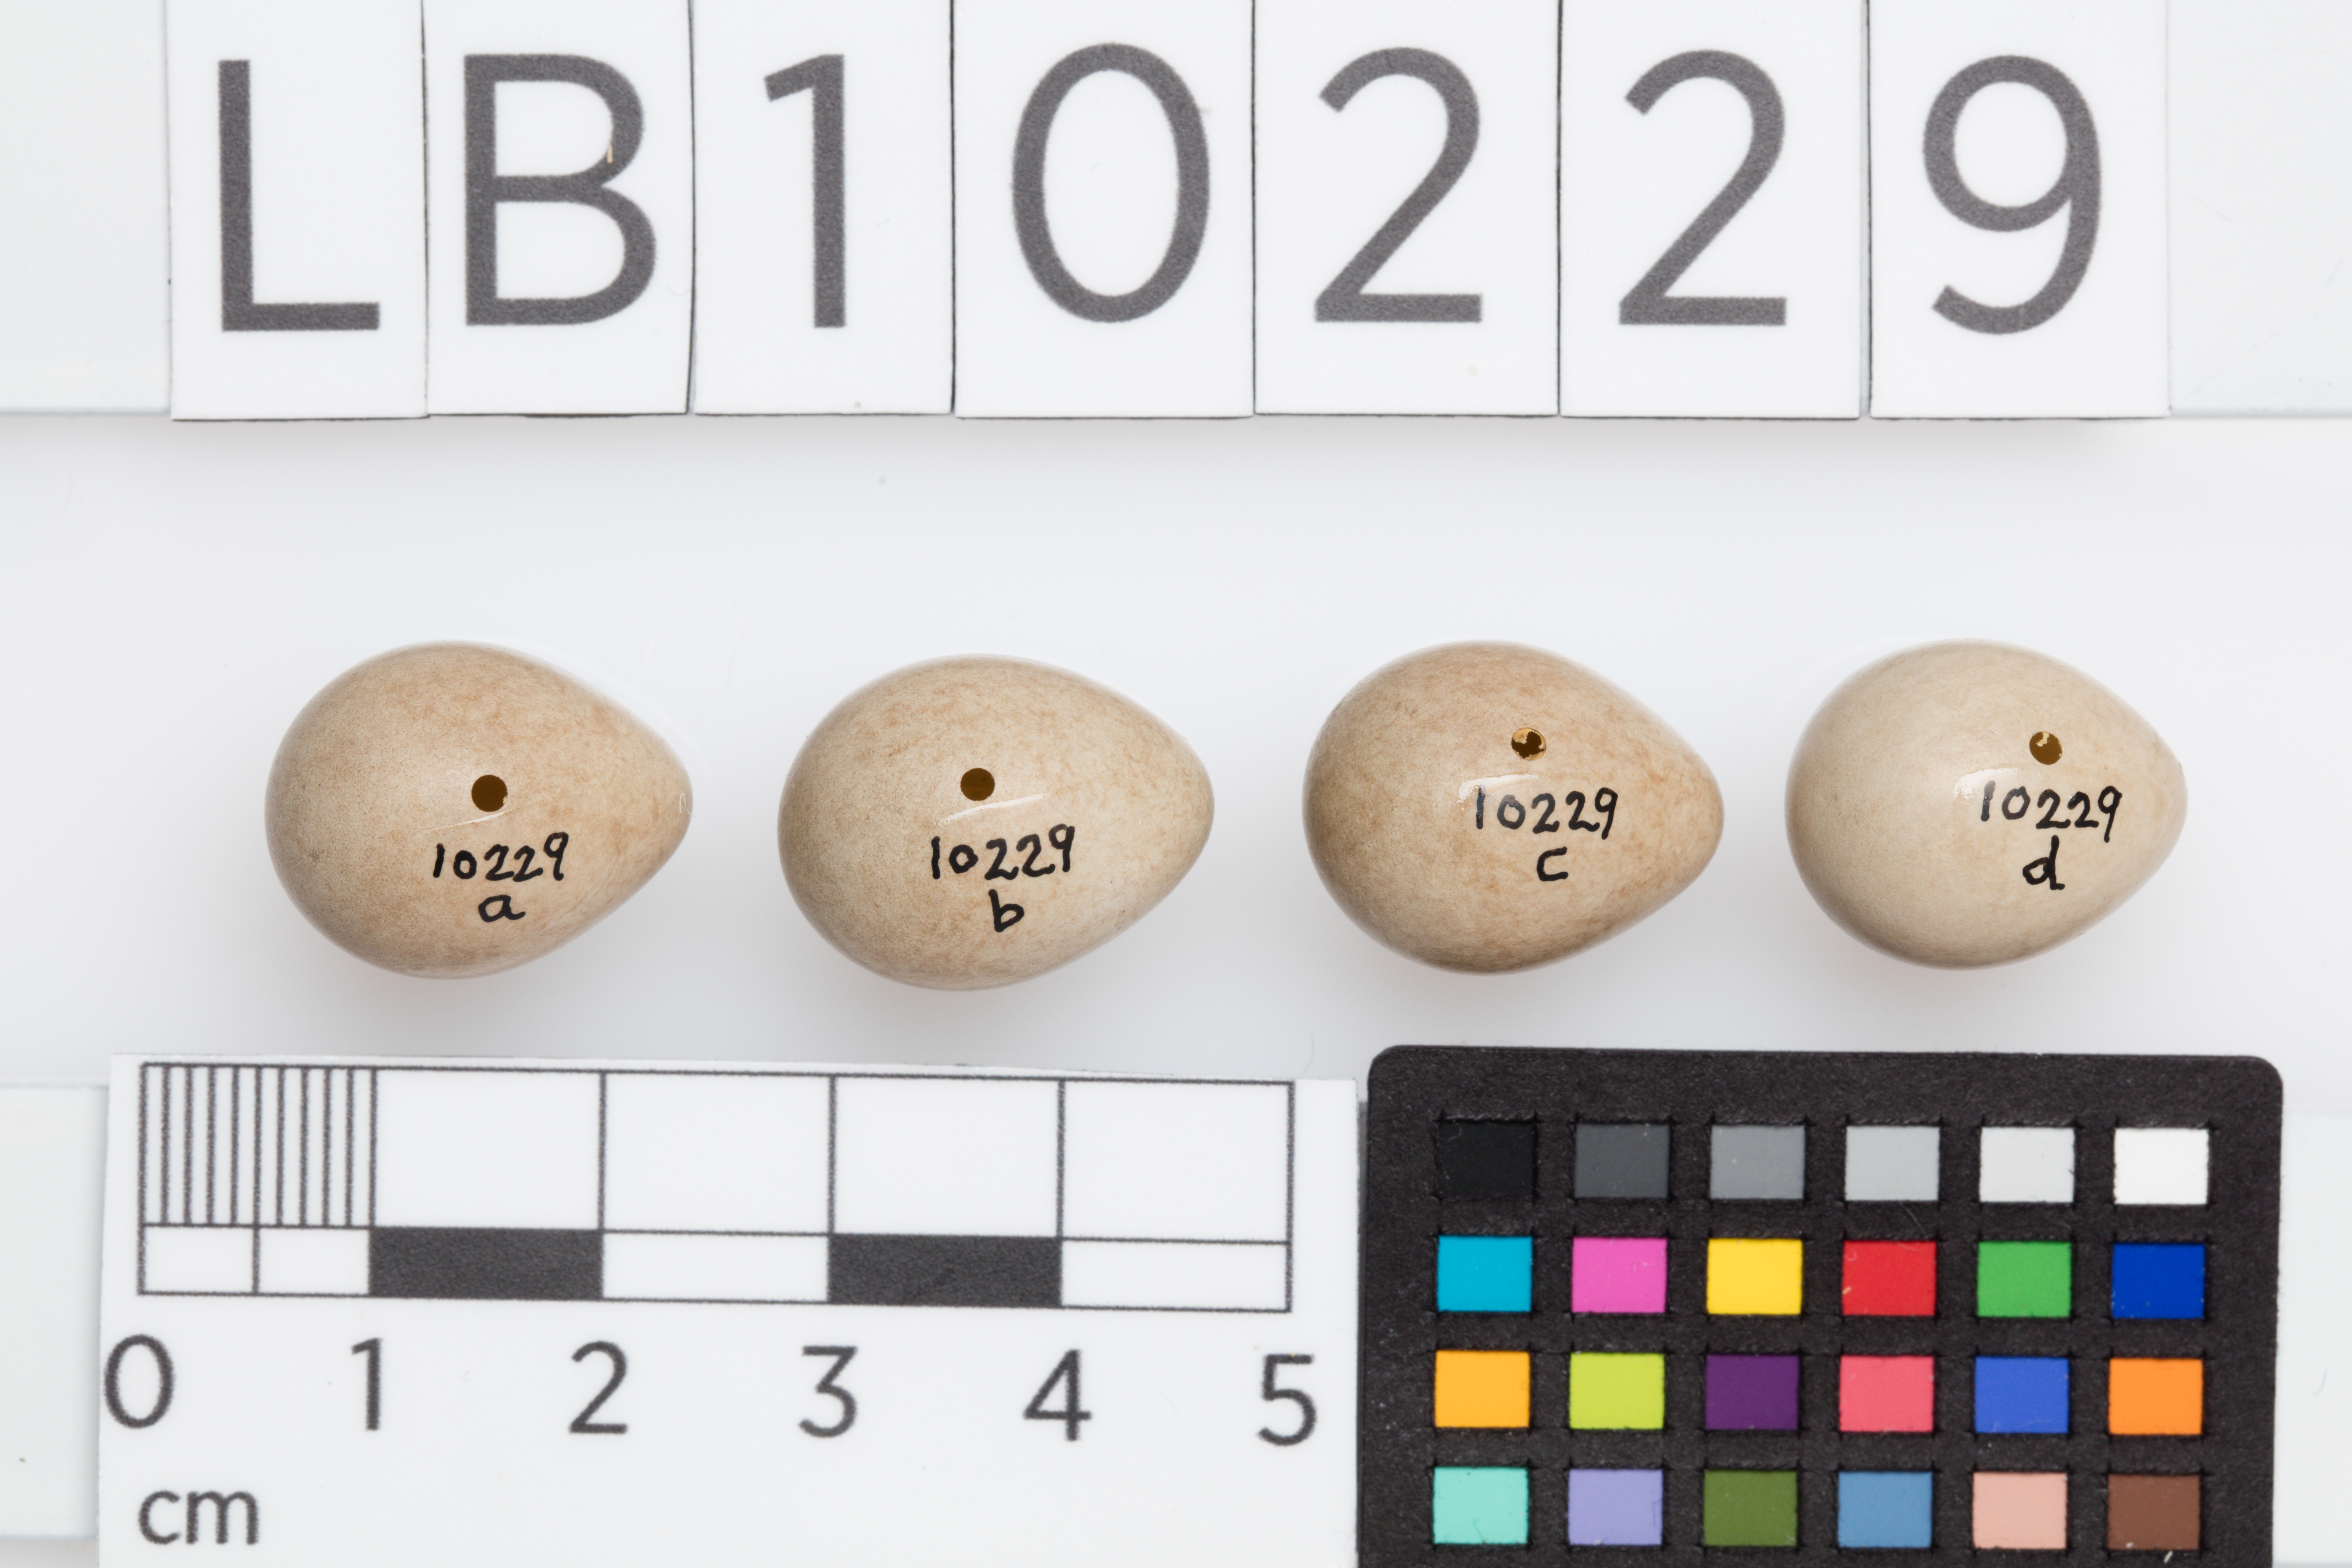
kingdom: Animalia
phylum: Chordata
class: Aves
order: Passeriformes
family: Motacillidae
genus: Motacilla
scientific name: Motacilla flava
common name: Western yellow wagtail
